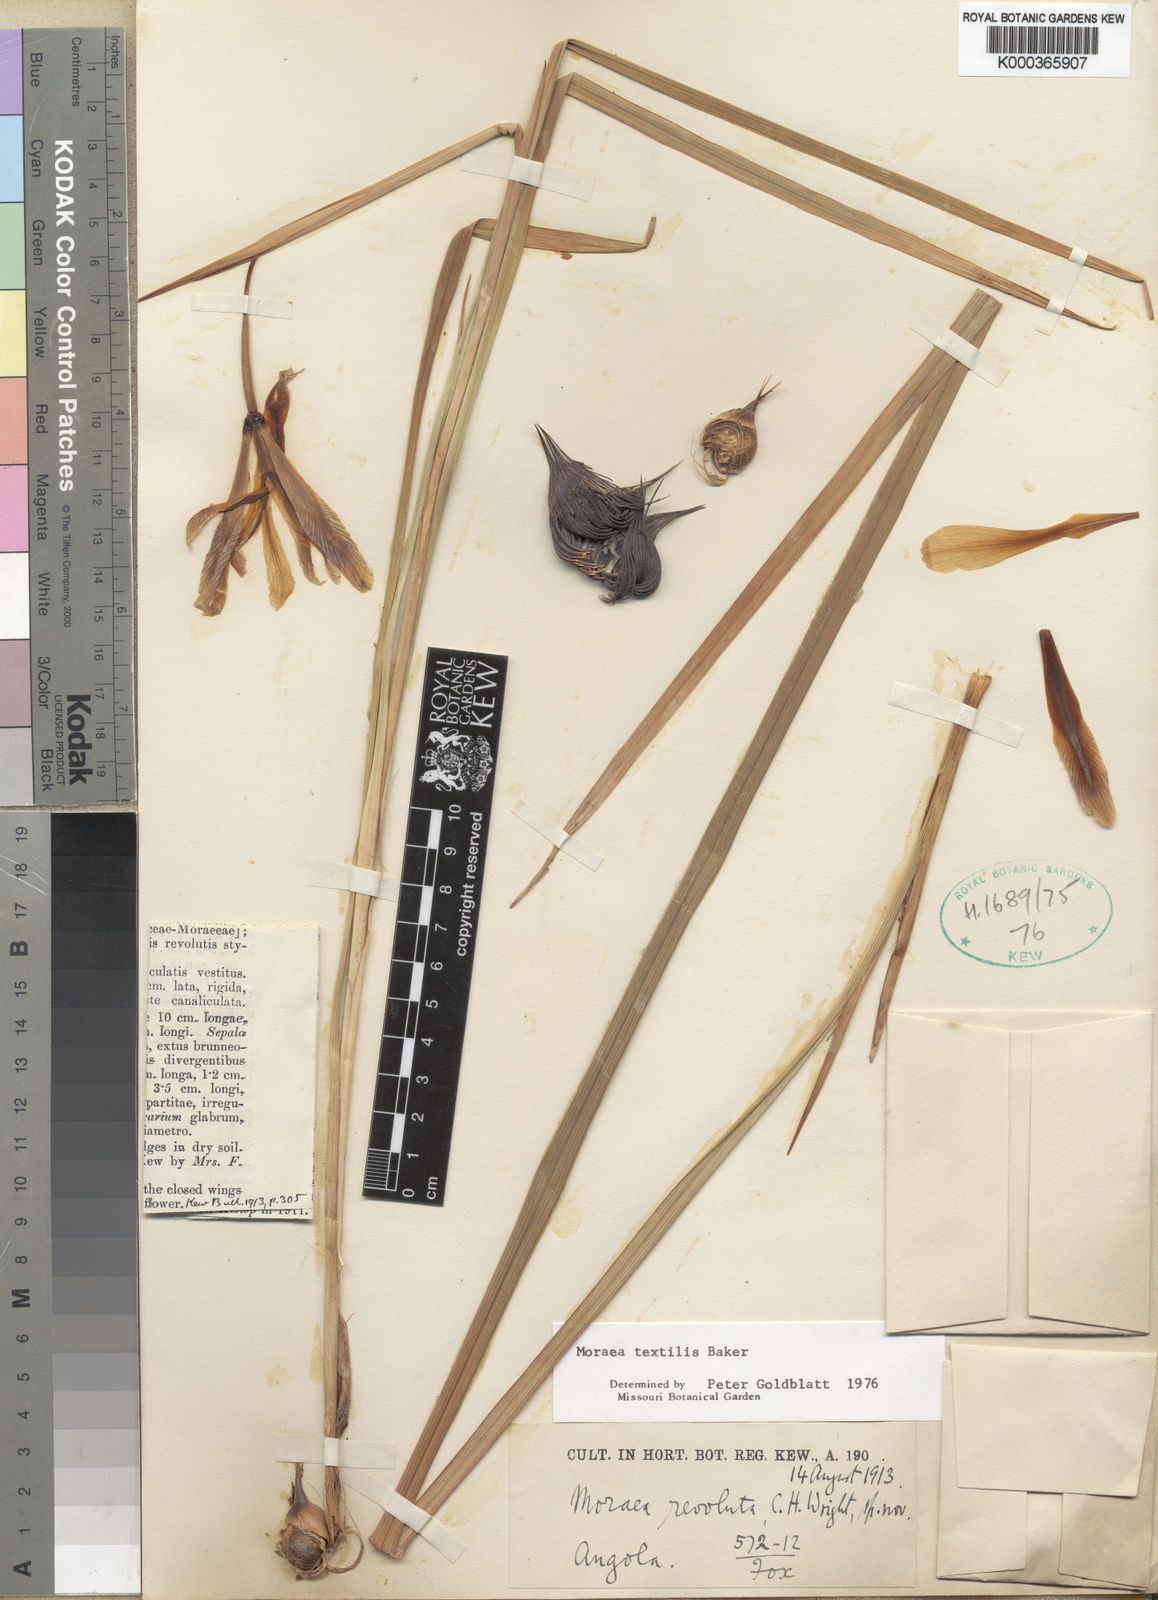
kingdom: Plantae
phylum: Tracheophyta
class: Liliopsida
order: Asparagales
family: Iridaceae
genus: Moraea
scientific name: Moraea textilis
